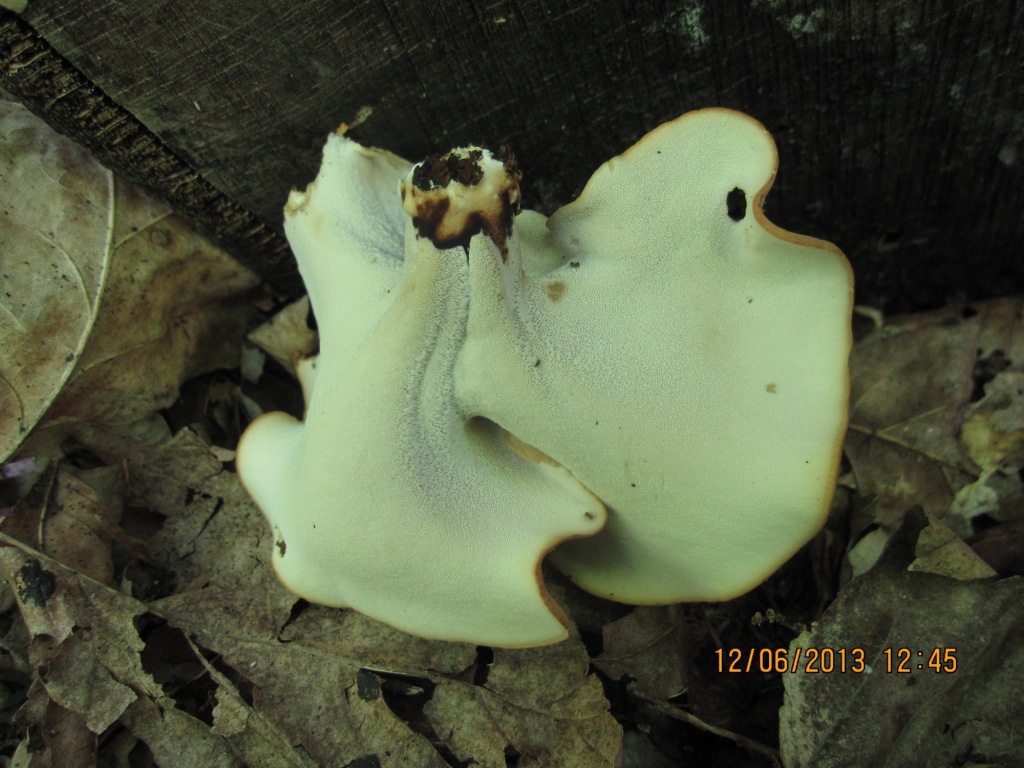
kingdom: Fungi
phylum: Basidiomycota
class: Agaricomycetes
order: Polyporales
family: Polyporaceae
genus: Cerioporus
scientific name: Cerioporus varius
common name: foranderlig stilkporesvamp
